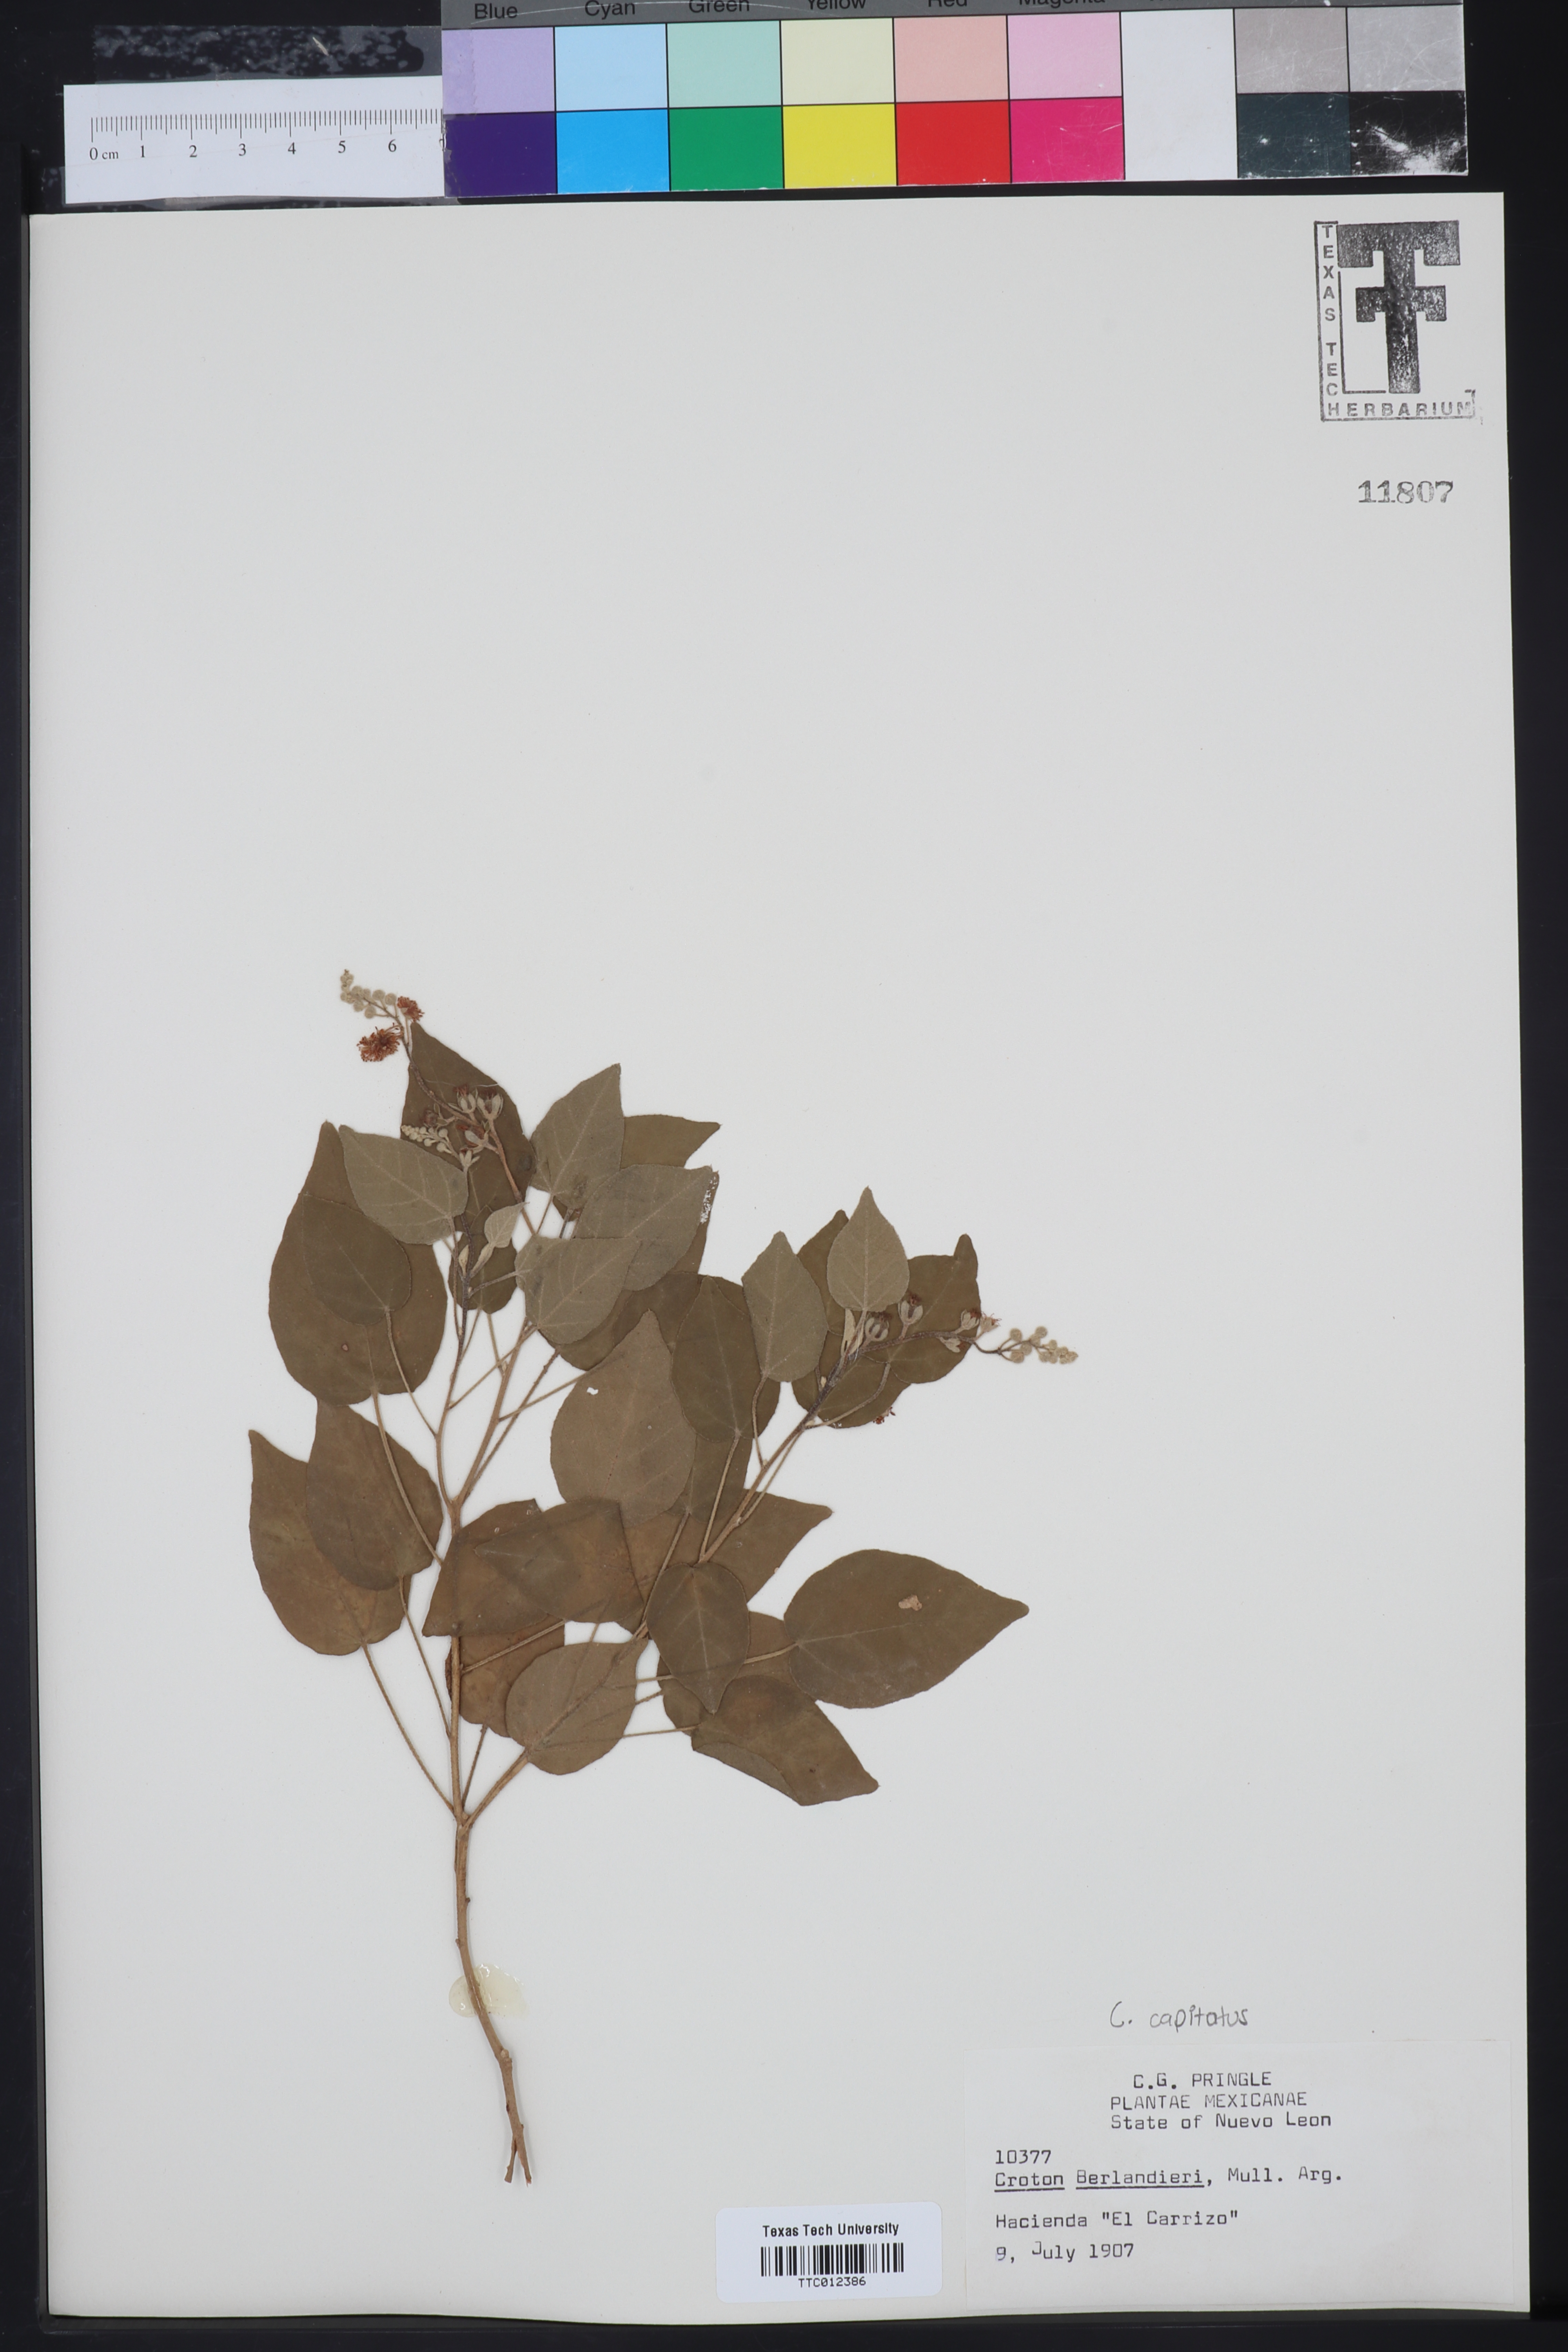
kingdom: Plantae
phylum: Tracheophyta
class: Magnoliopsida
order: Malpighiales
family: Euphorbiaceae
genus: Croton
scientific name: Croton humilis
